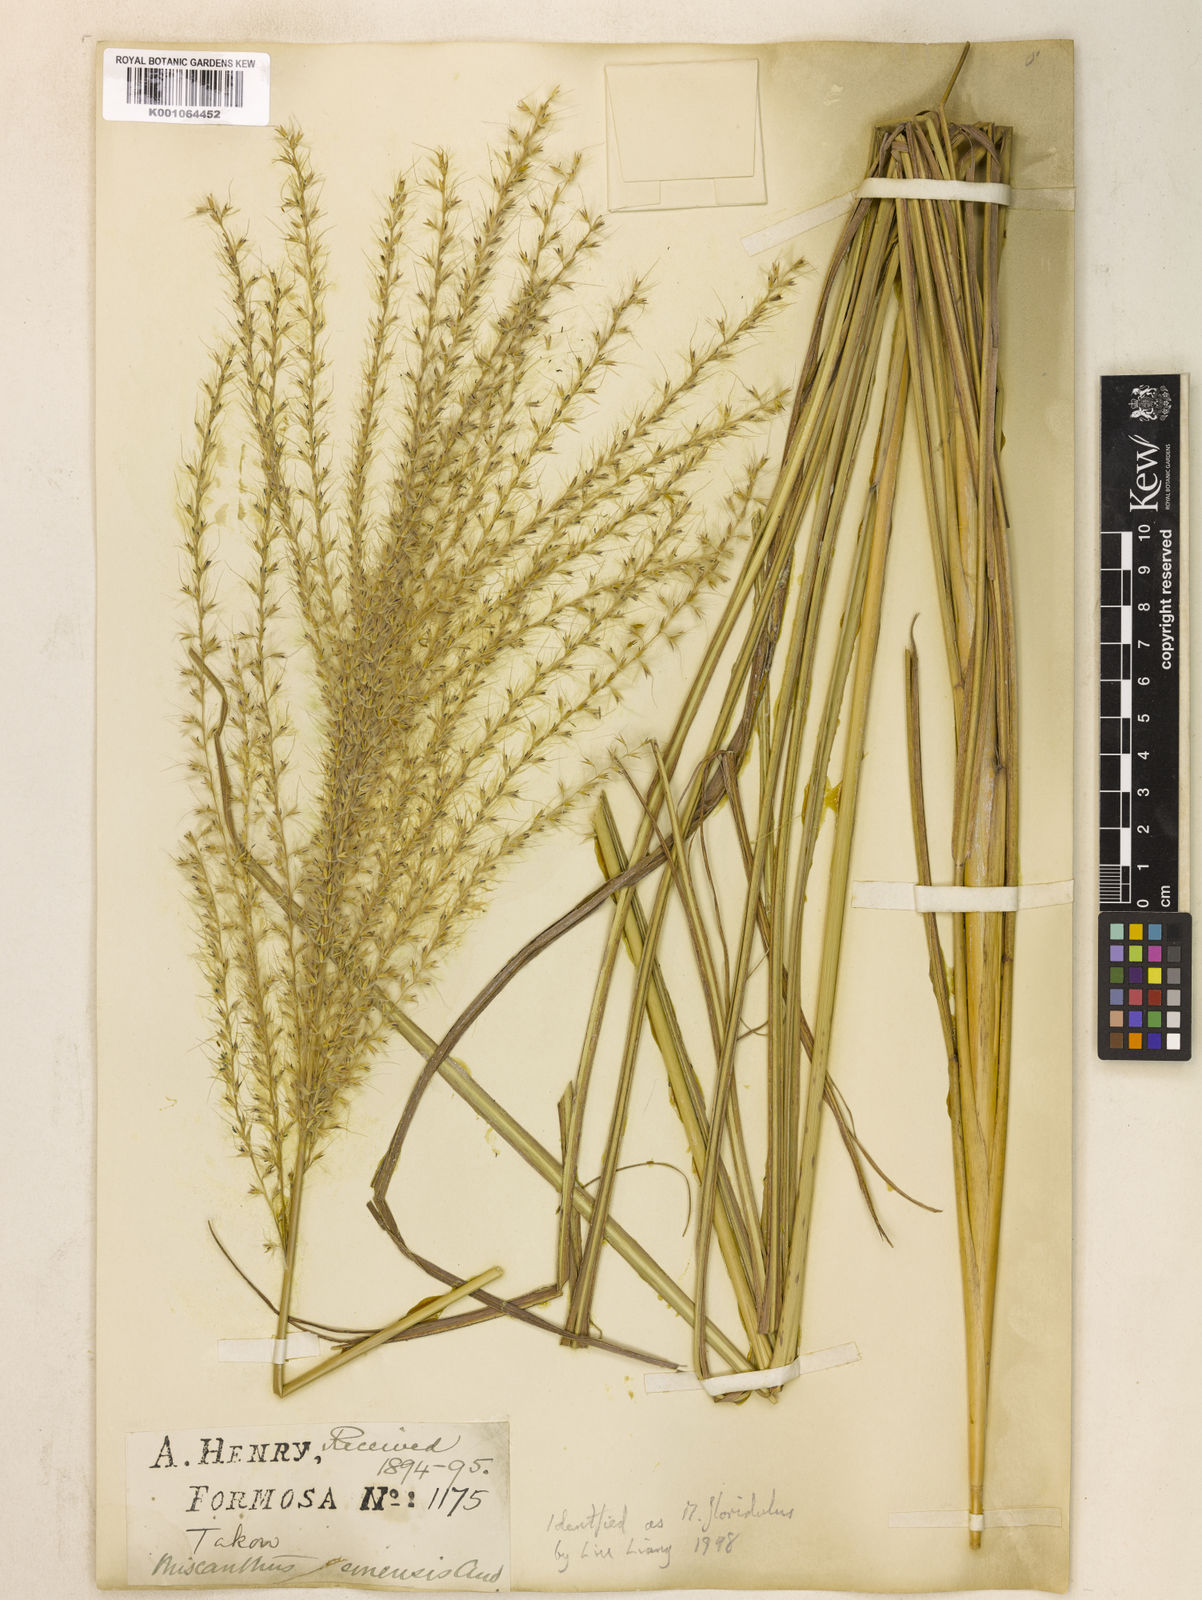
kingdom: Plantae
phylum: Tracheophyta
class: Liliopsida
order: Poales
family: Poaceae
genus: Miscanthus
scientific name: Miscanthus sinensis
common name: Chinese silvergrass
